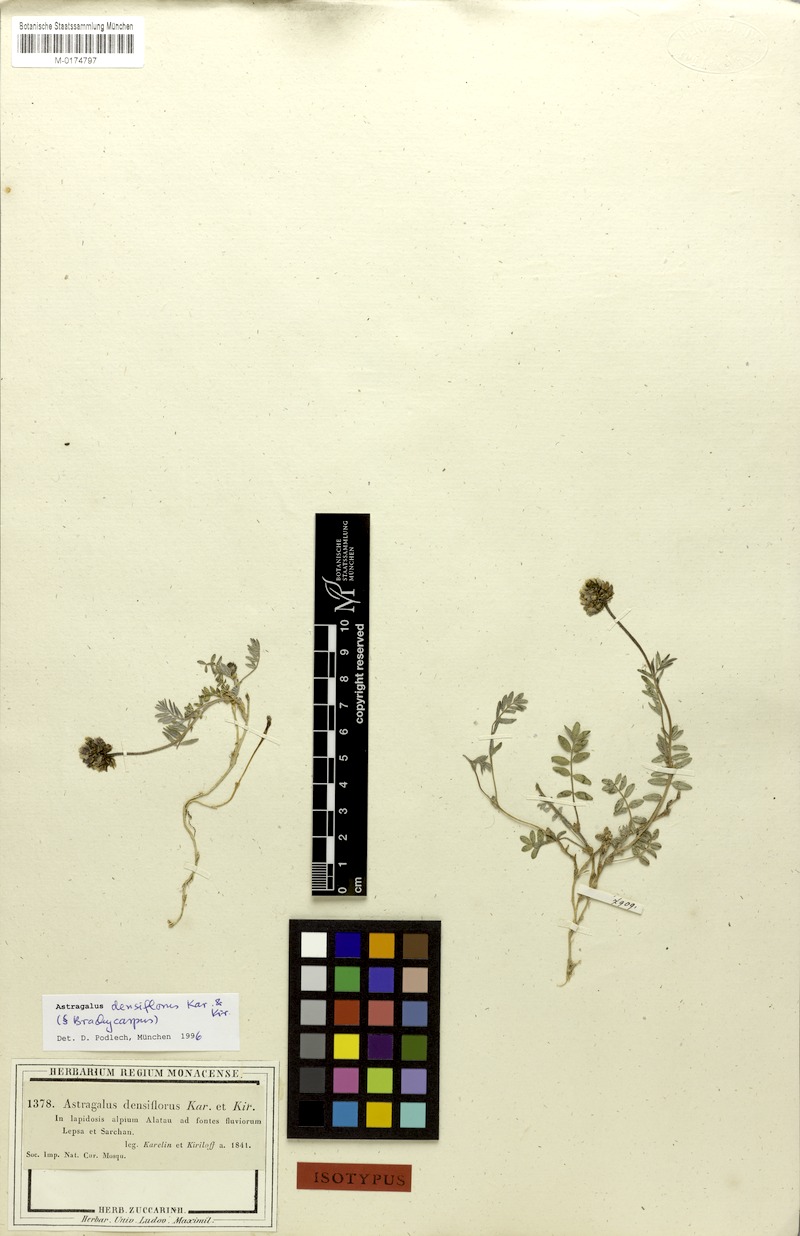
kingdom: Plantae
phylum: Tracheophyta
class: Magnoliopsida
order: Fabales
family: Fabaceae
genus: Astragalus
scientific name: Astragalus densiflorus
